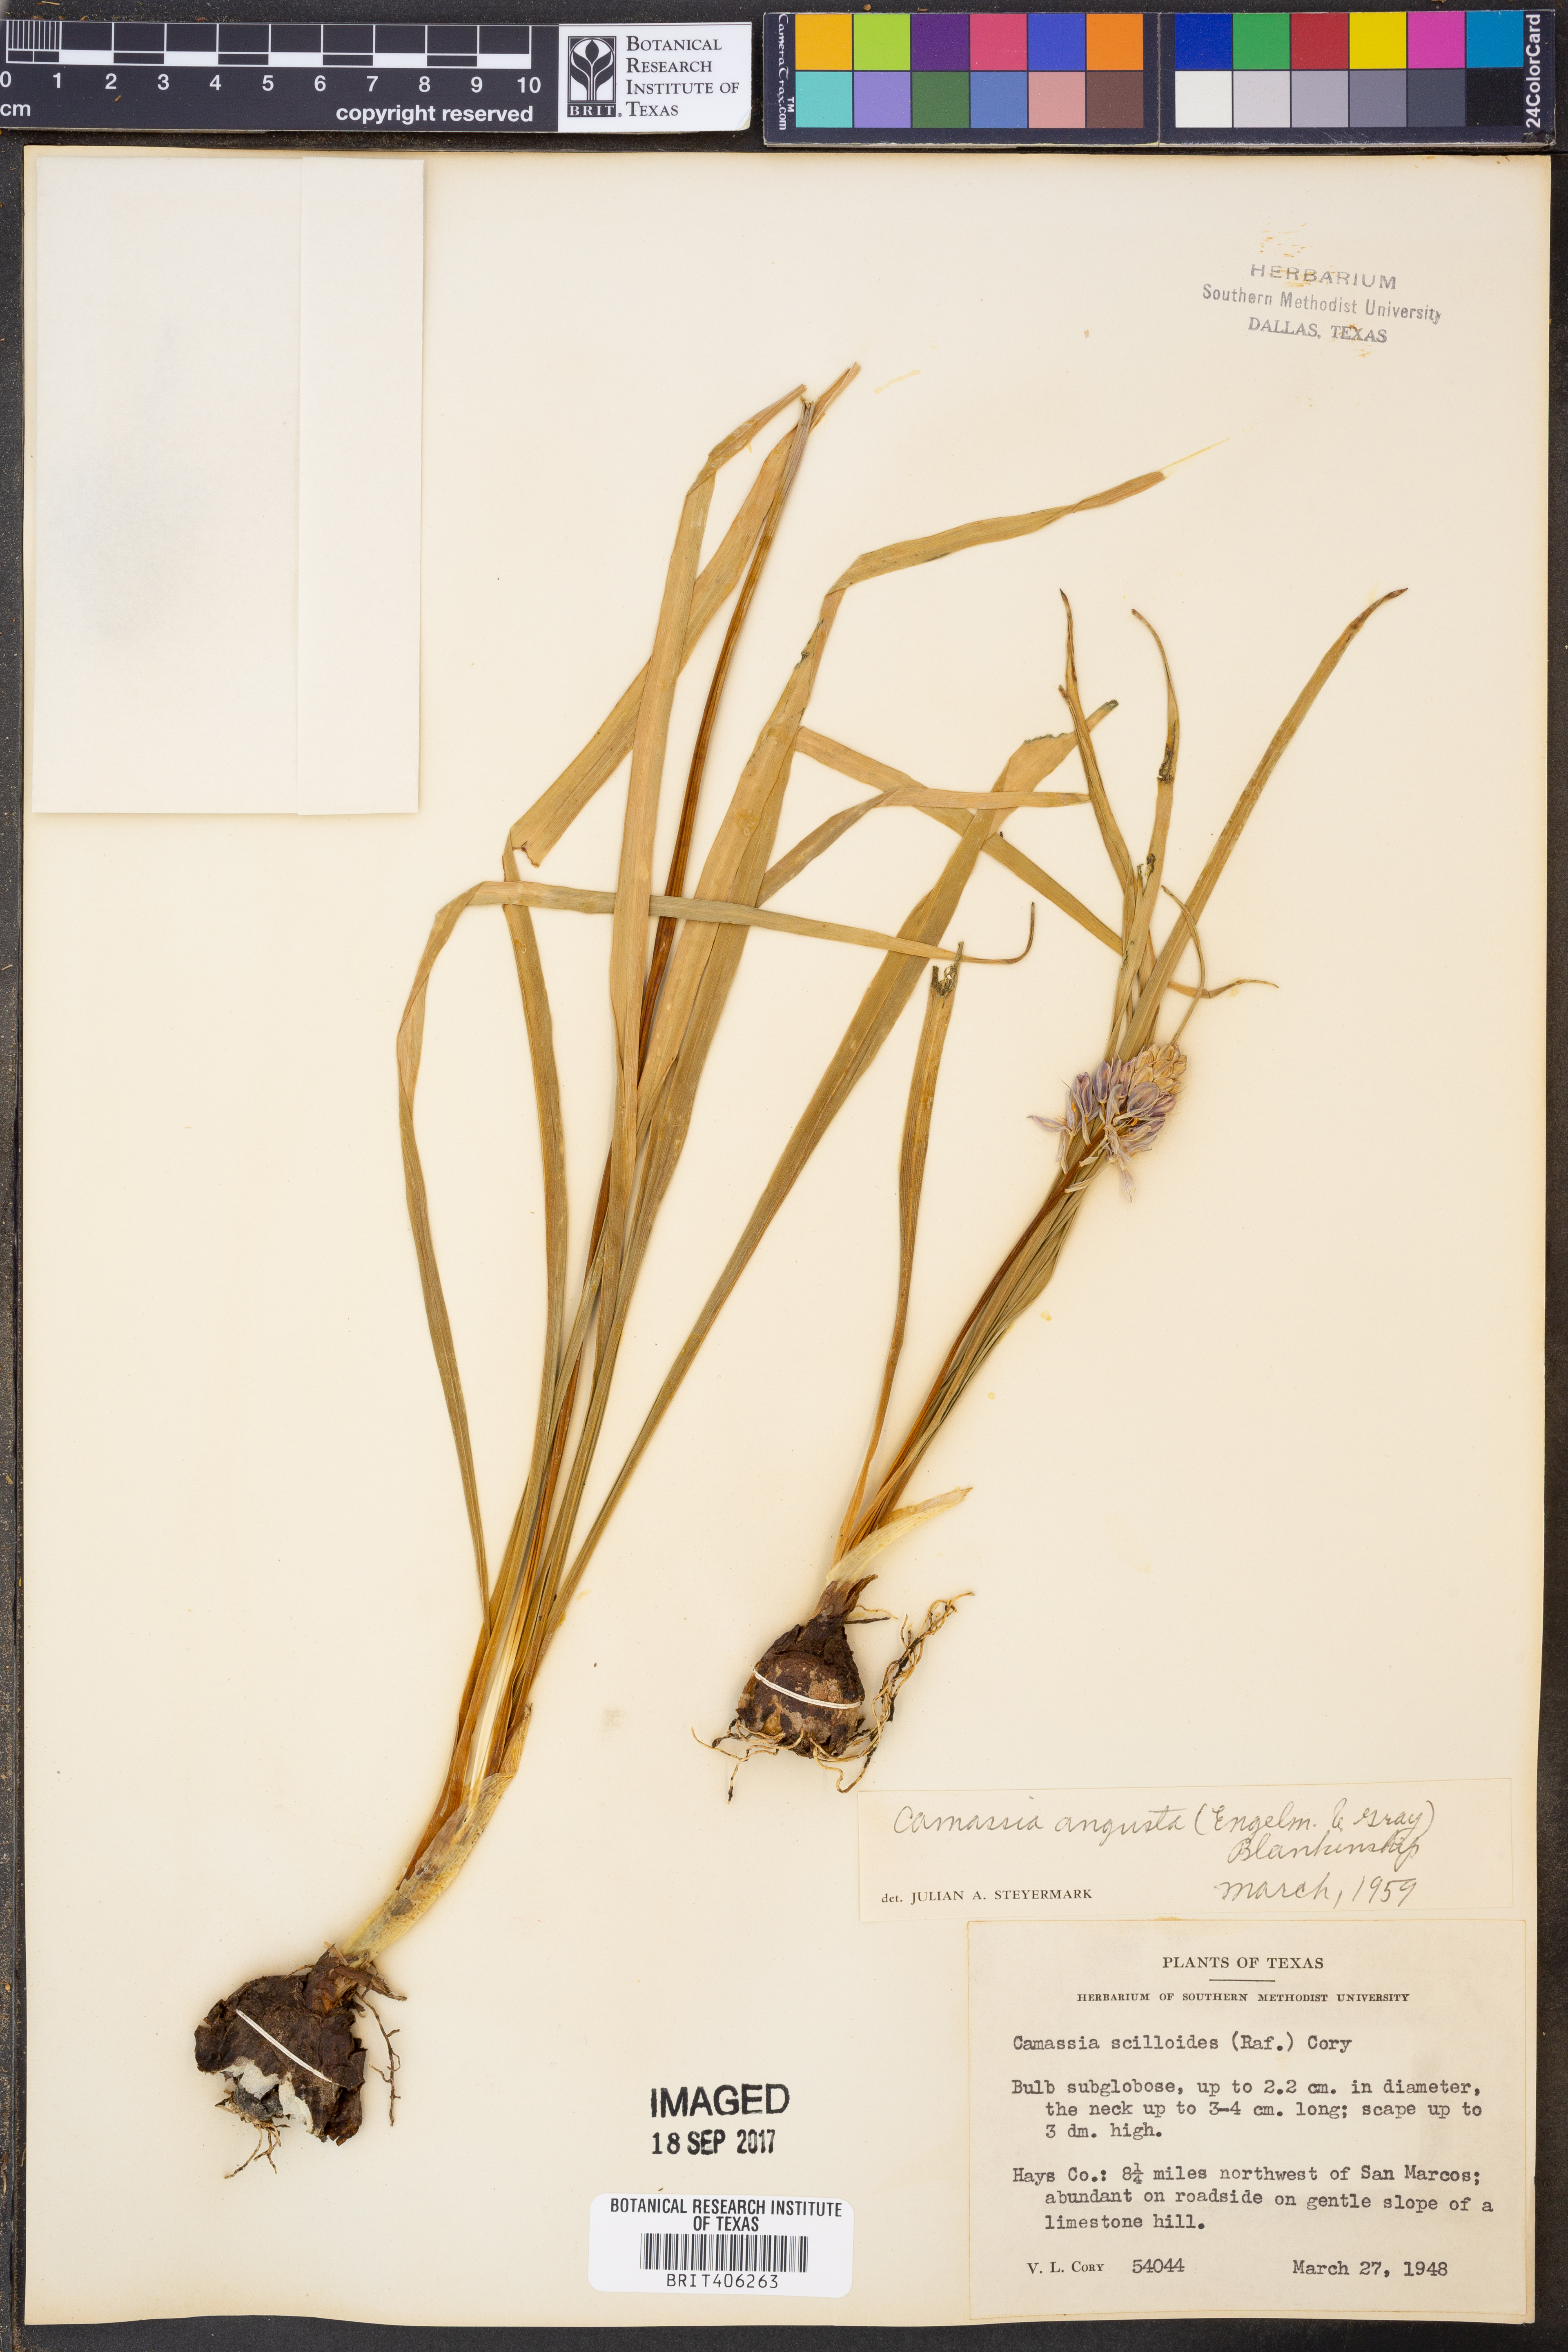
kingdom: Plantae
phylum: Tracheophyta
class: Liliopsida
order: Asparagales
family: Asparagaceae
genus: Camassia
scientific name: Camassia scilloides
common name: Wild hyacinth
